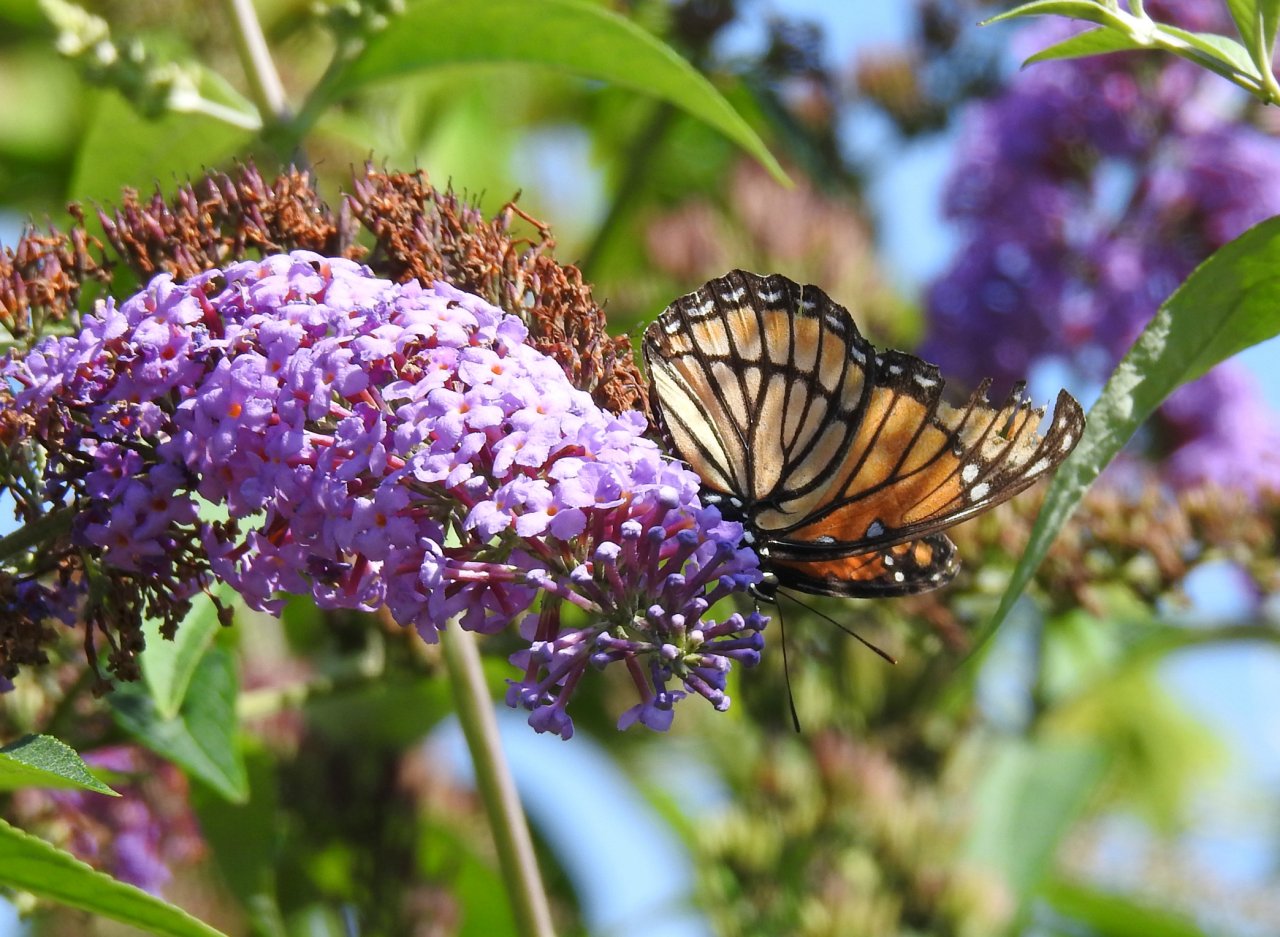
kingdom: Animalia
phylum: Arthropoda
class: Insecta
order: Lepidoptera
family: Nymphalidae
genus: Limenitis
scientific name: Limenitis archippus
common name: Viceroy
